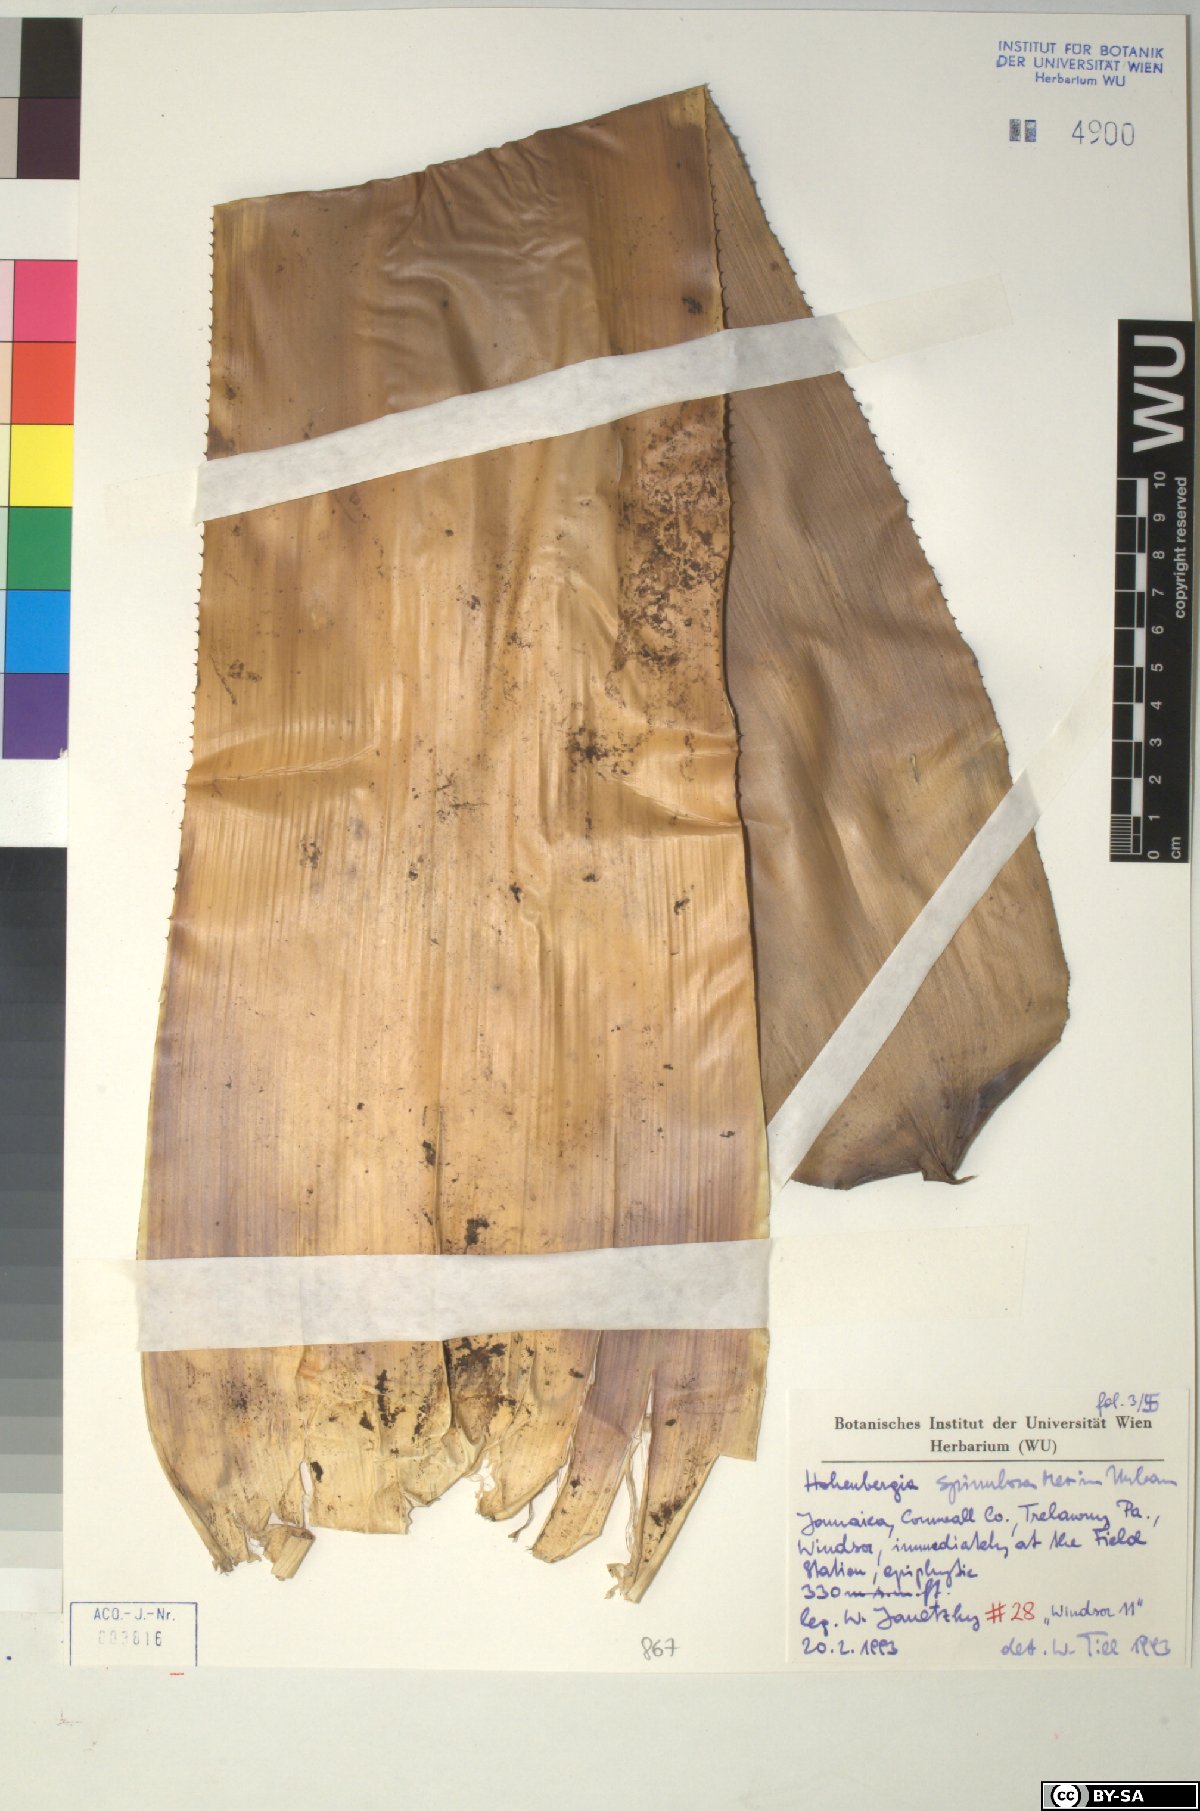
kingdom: Plantae
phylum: Tracheophyta
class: Liliopsida
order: Poales
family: Bromeliaceae
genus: Wittmackia
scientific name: Wittmackia spinulosa
